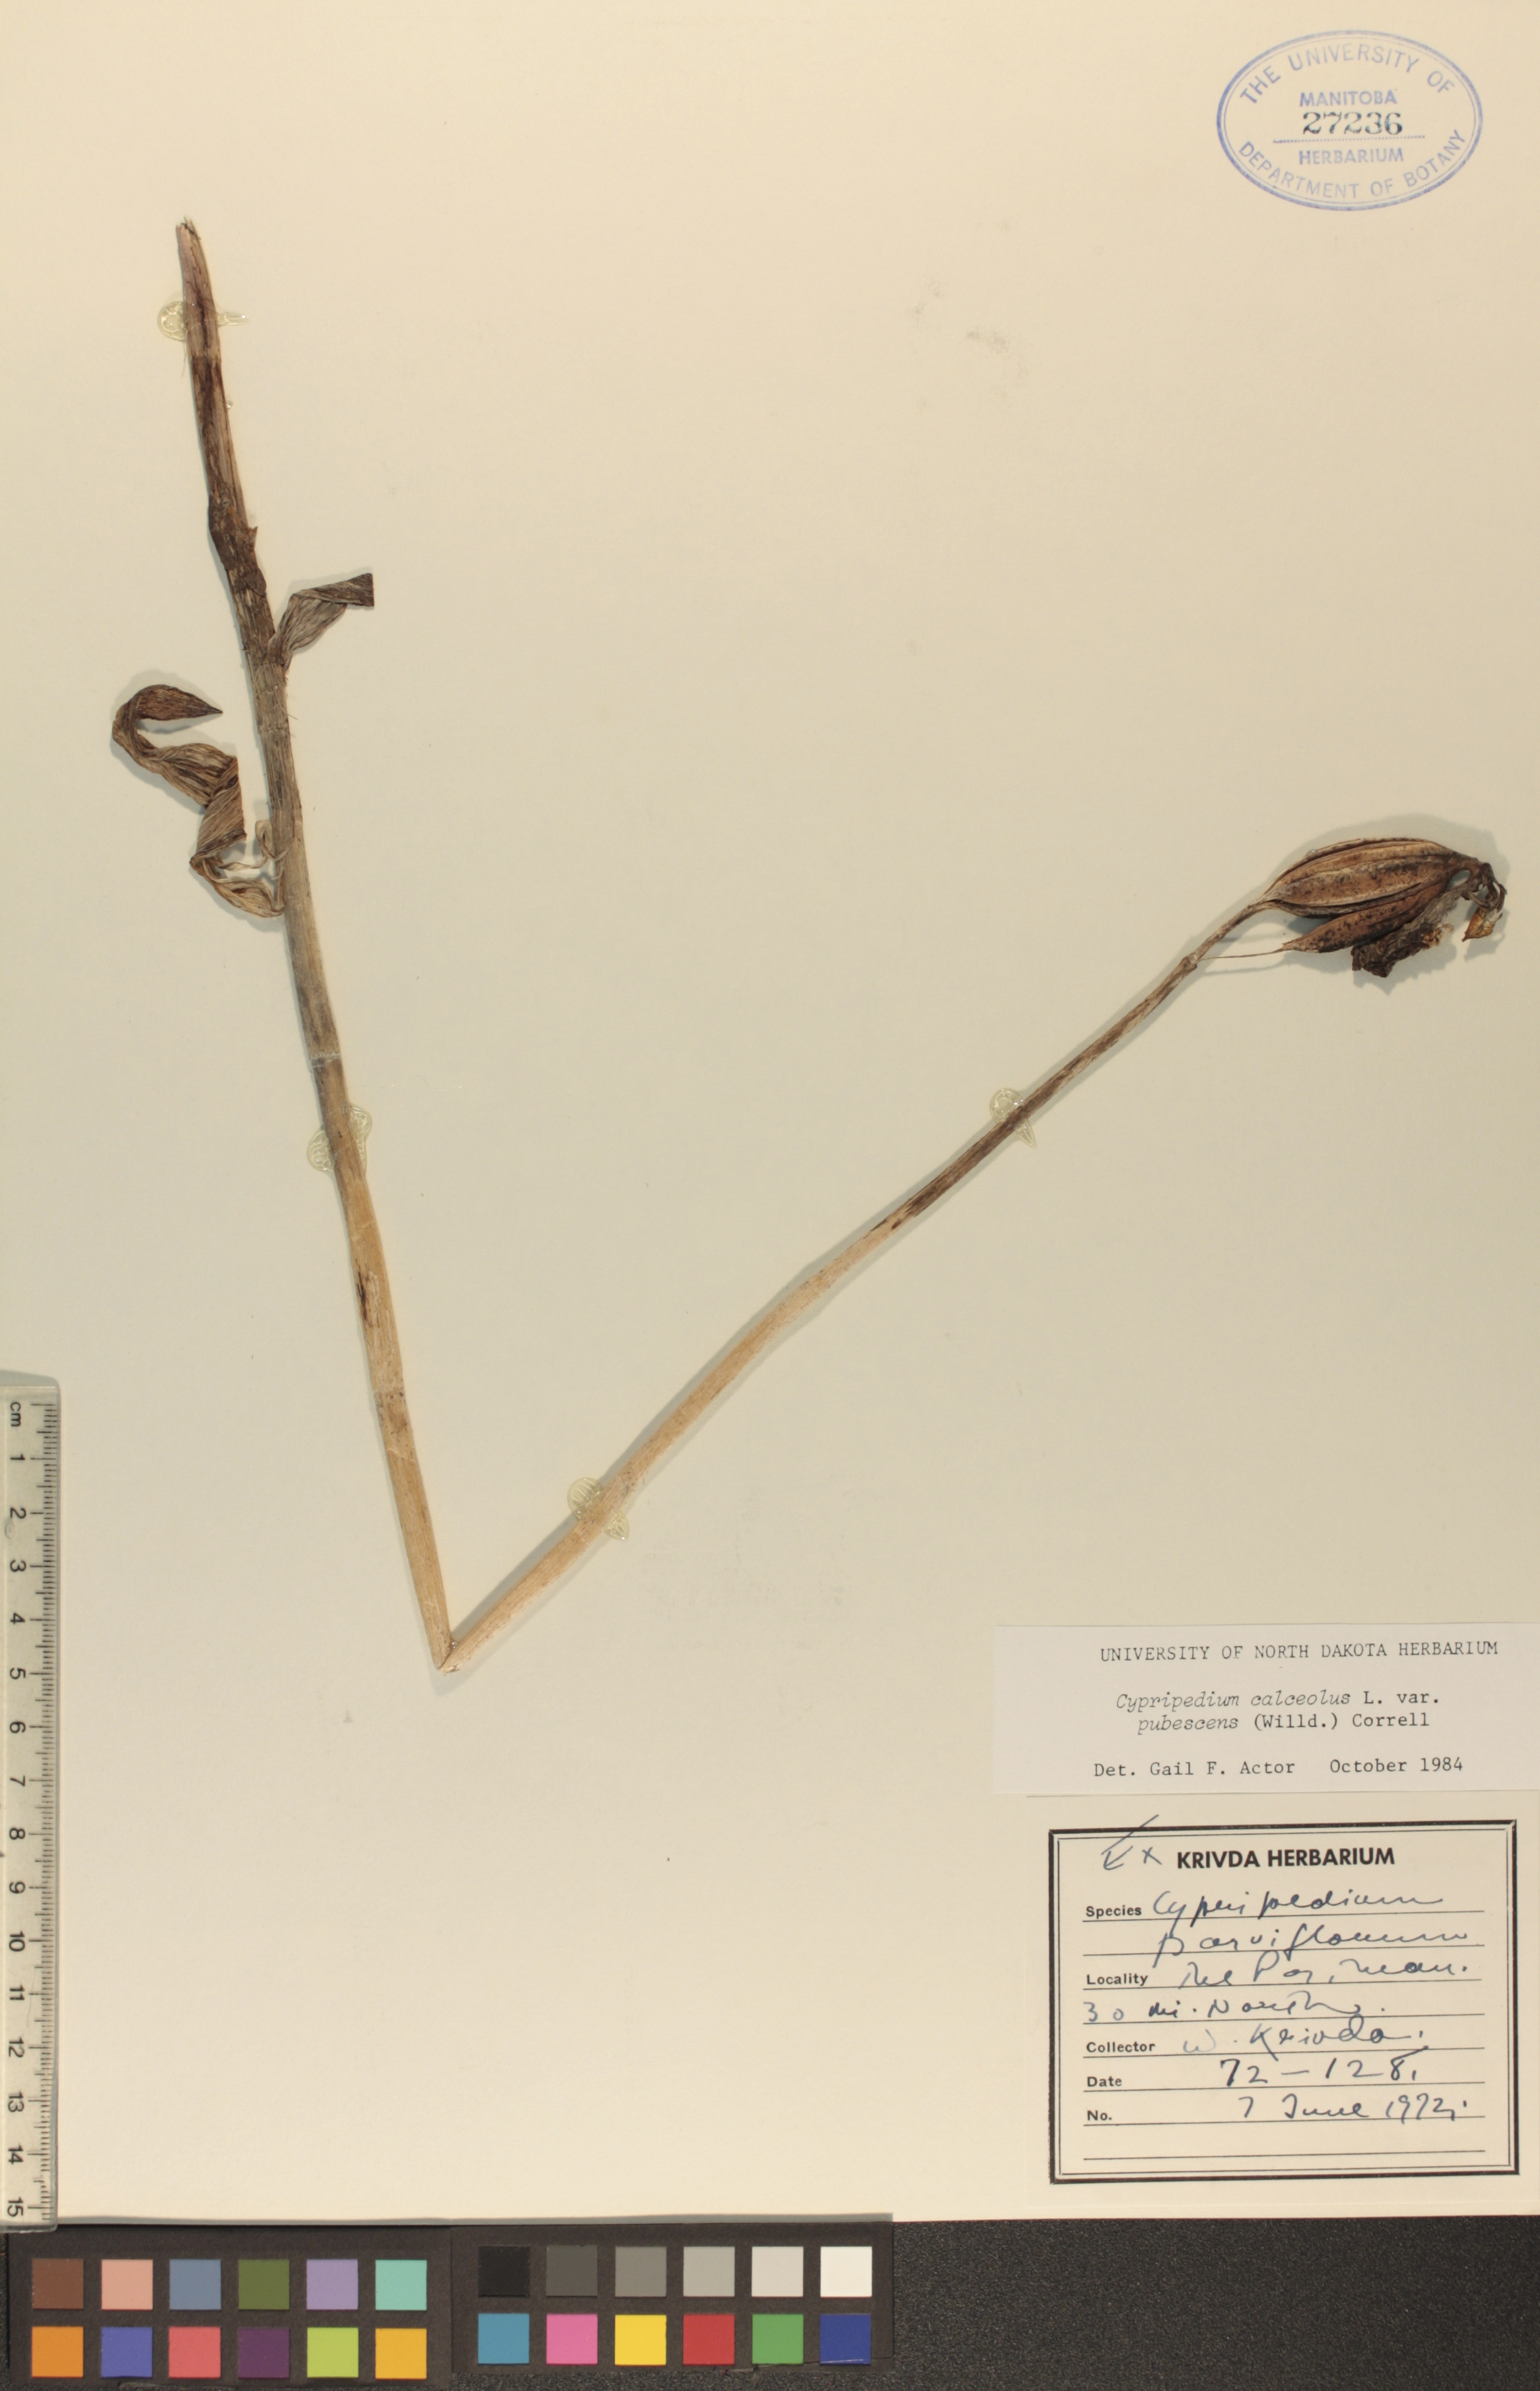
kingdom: Plantae
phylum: Tracheophyta
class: Liliopsida
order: Asparagales
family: Orchidaceae
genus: Cypripedium
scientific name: Cypripedium parviflorum
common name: American yellow lady's-slipper
